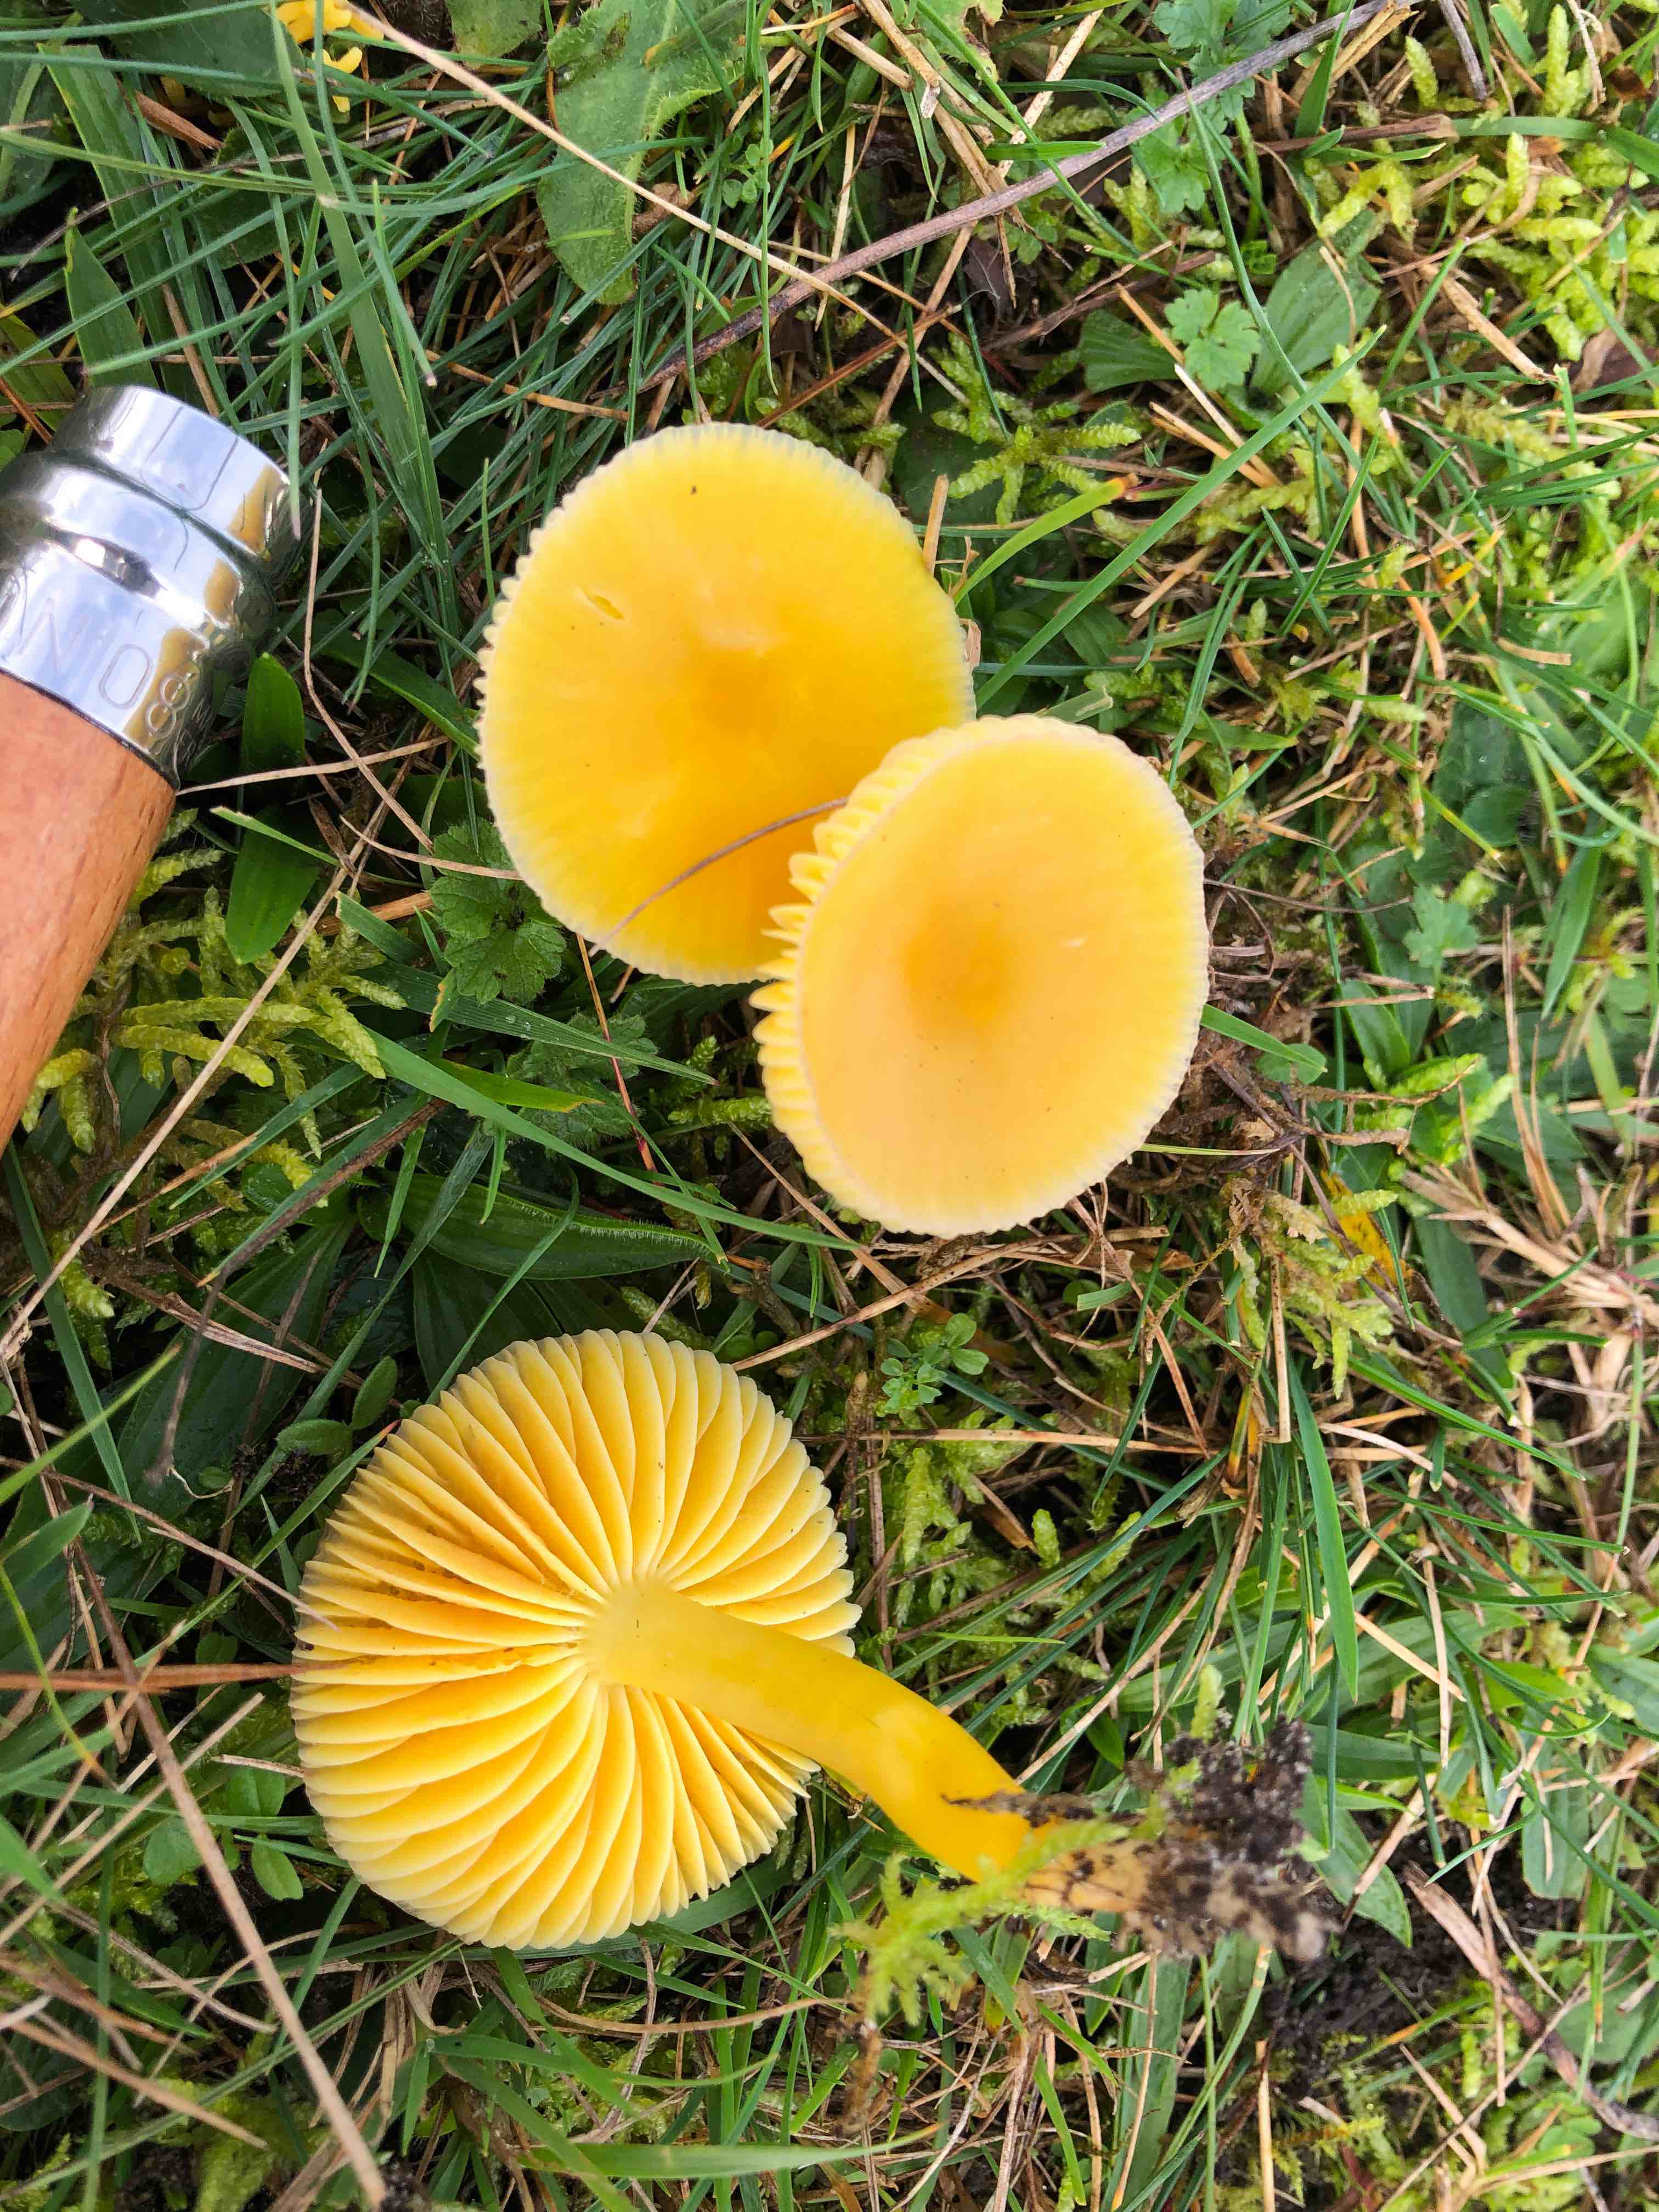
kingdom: Fungi
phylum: Basidiomycota
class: Agaricomycetes
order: Agaricales
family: Hygrophoraceae
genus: Hygrocybe
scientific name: Hygrocybe chlorophana
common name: gul vokshat
